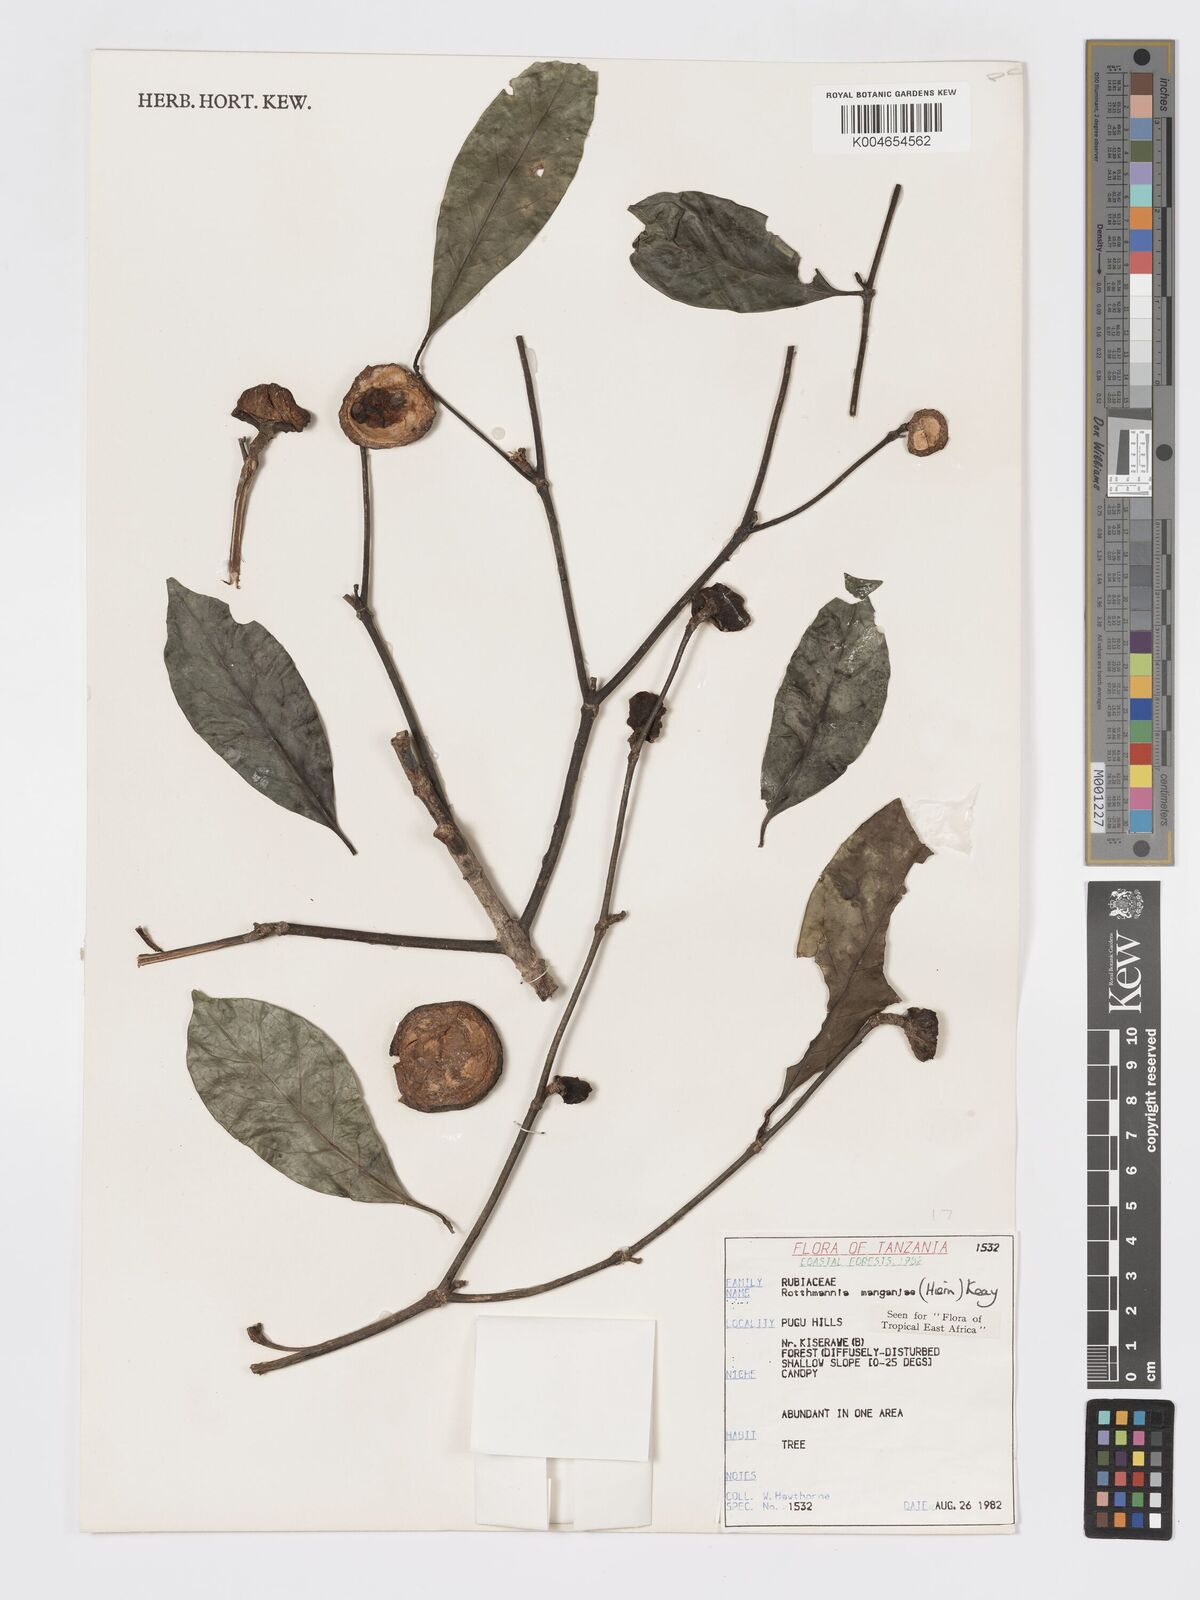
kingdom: Plantae
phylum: Tracheophyta
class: Magnoliopsida
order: Gentianales
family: Rubiaceae
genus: Rothmannia
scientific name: Rothmannia manganjae
